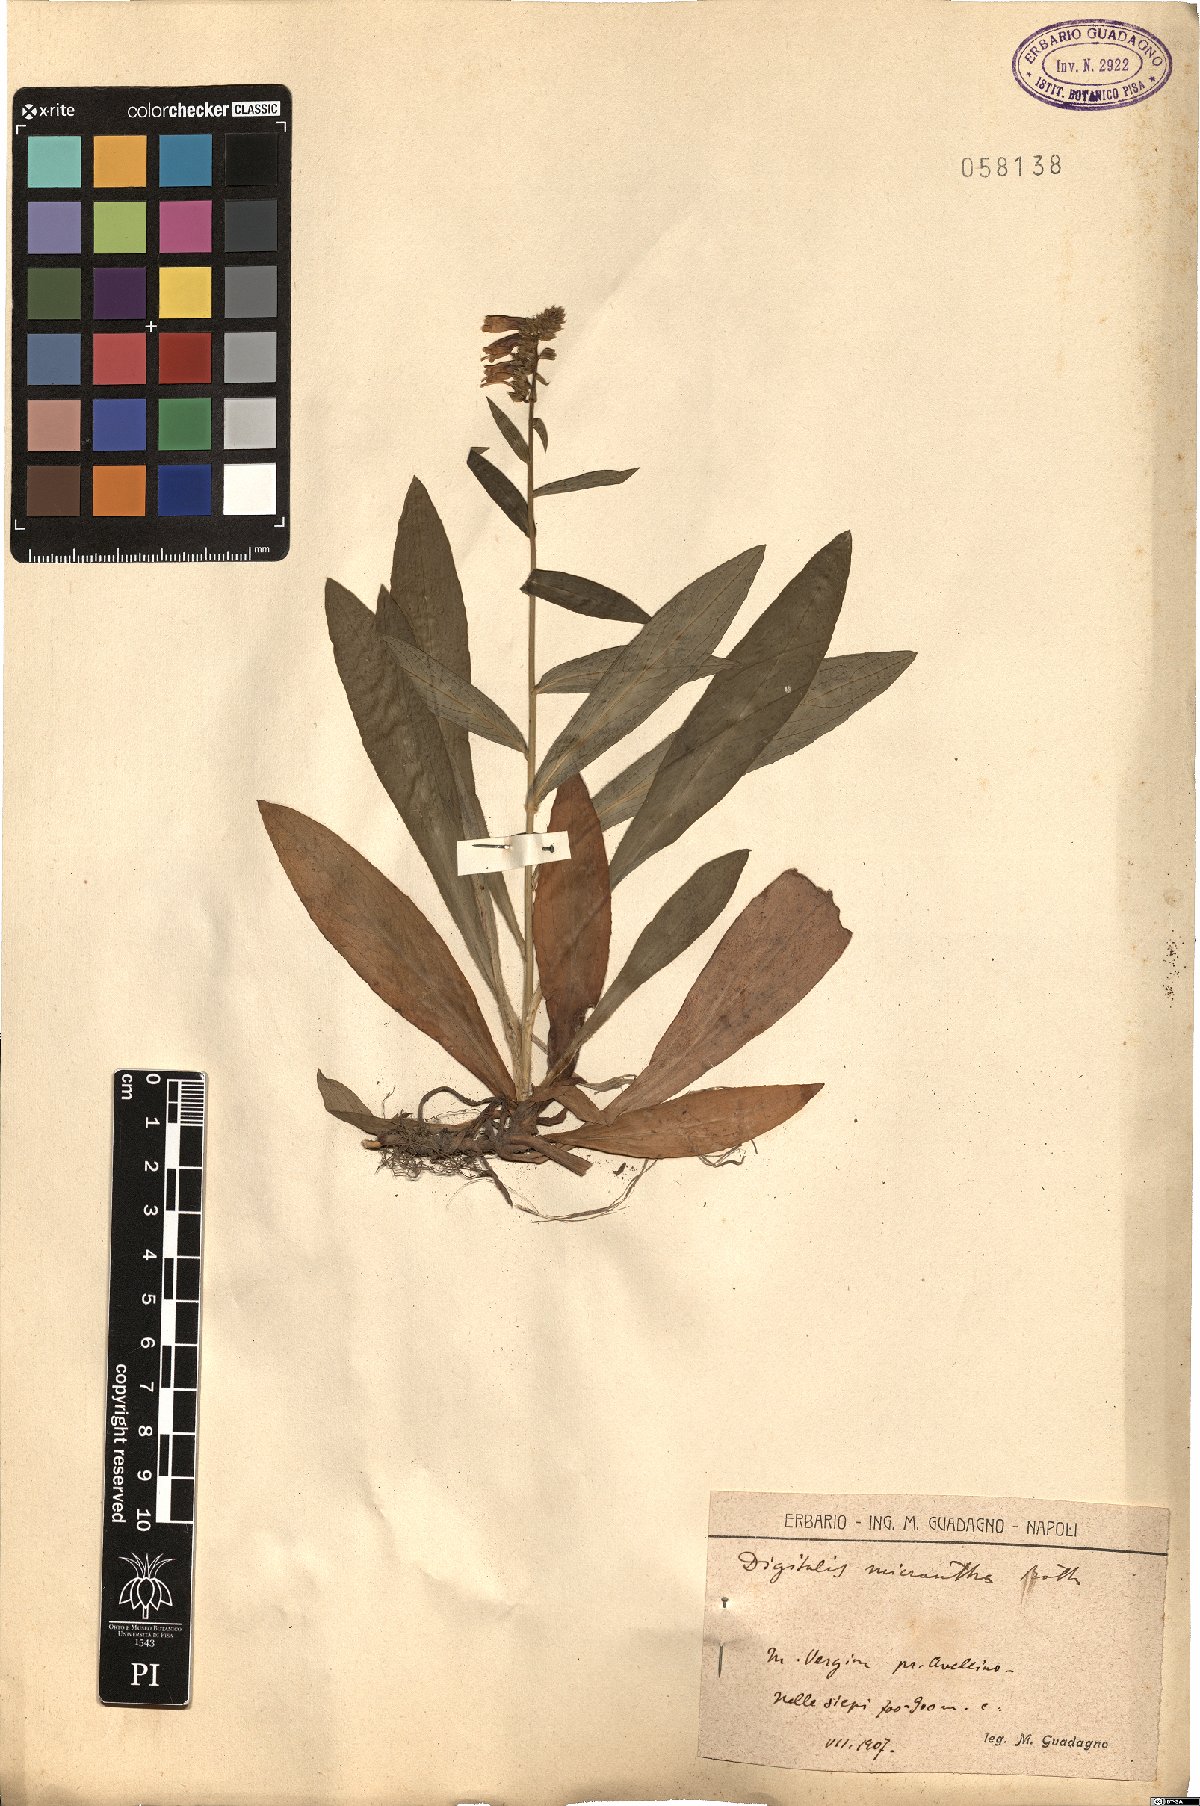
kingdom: Plantae
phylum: Tracheophyta
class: Magnoliopsida
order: Lamiales
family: Plantaginaceae
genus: Digitalis
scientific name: Digitalis lutea
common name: Straw foxglove
